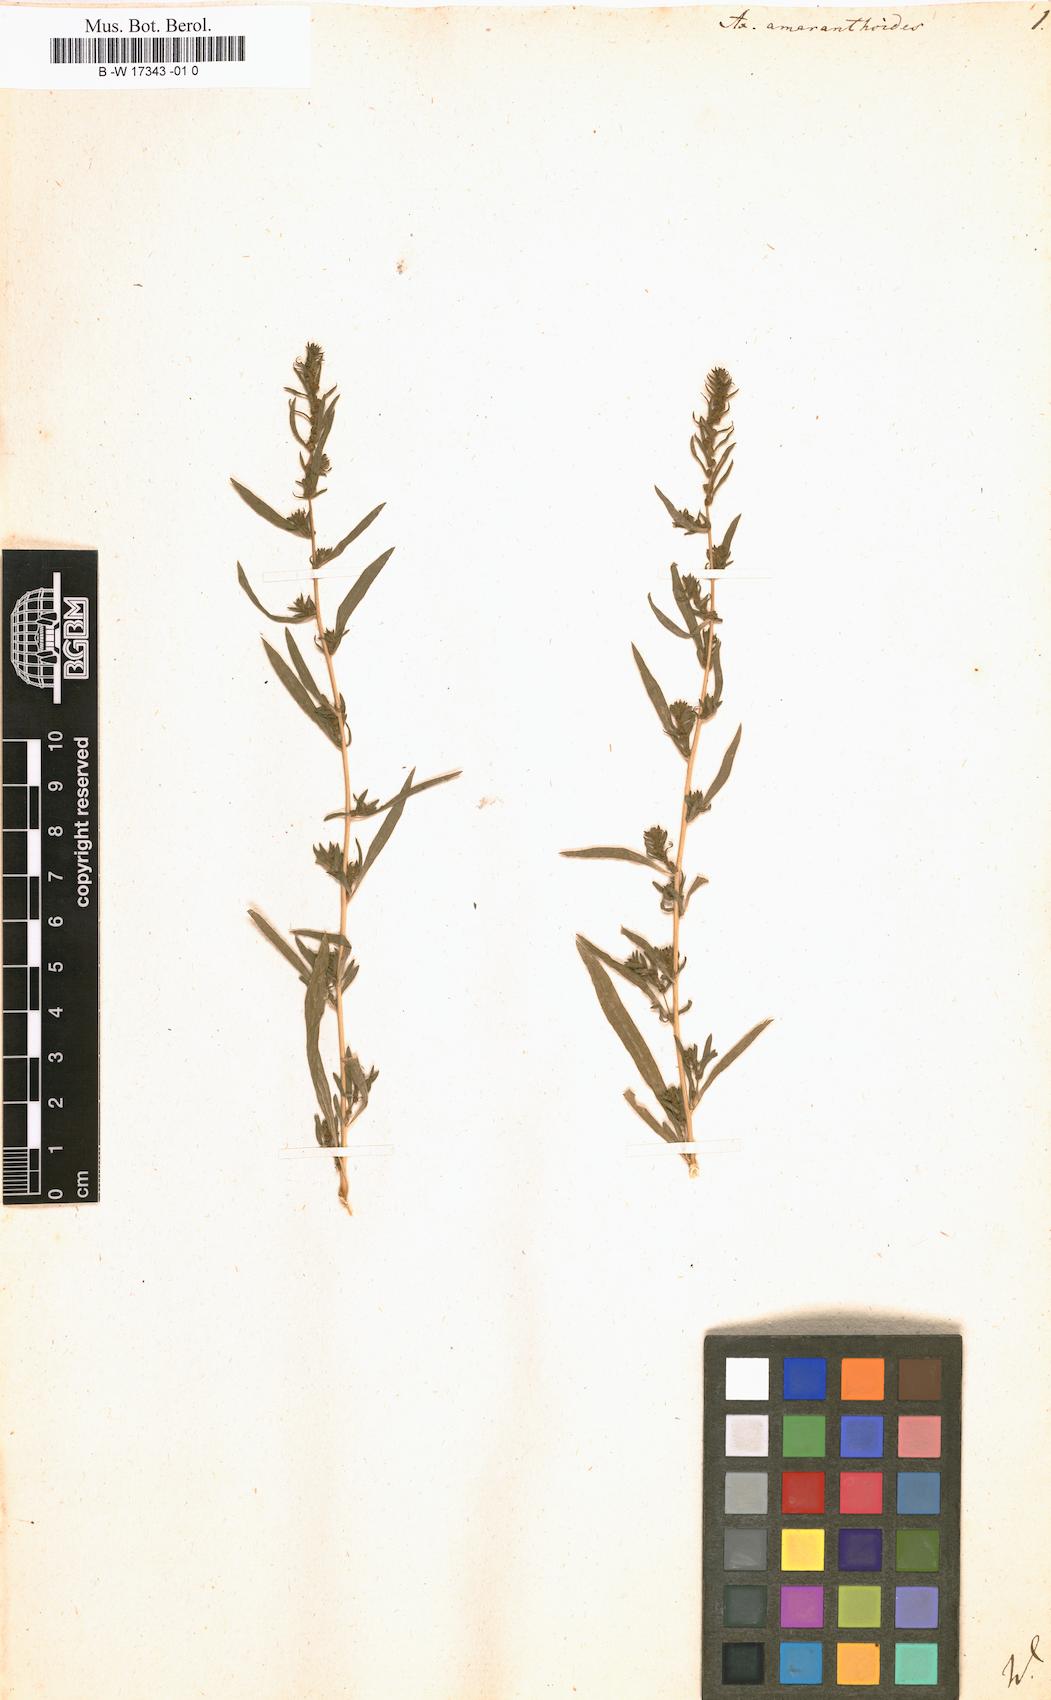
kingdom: Plantae
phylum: Tracheophyta
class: Magnoliopsida
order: Caryophyllales
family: Amaranthaceae
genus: Axyris
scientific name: Axyris amaranthoides
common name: Russian pigweed
